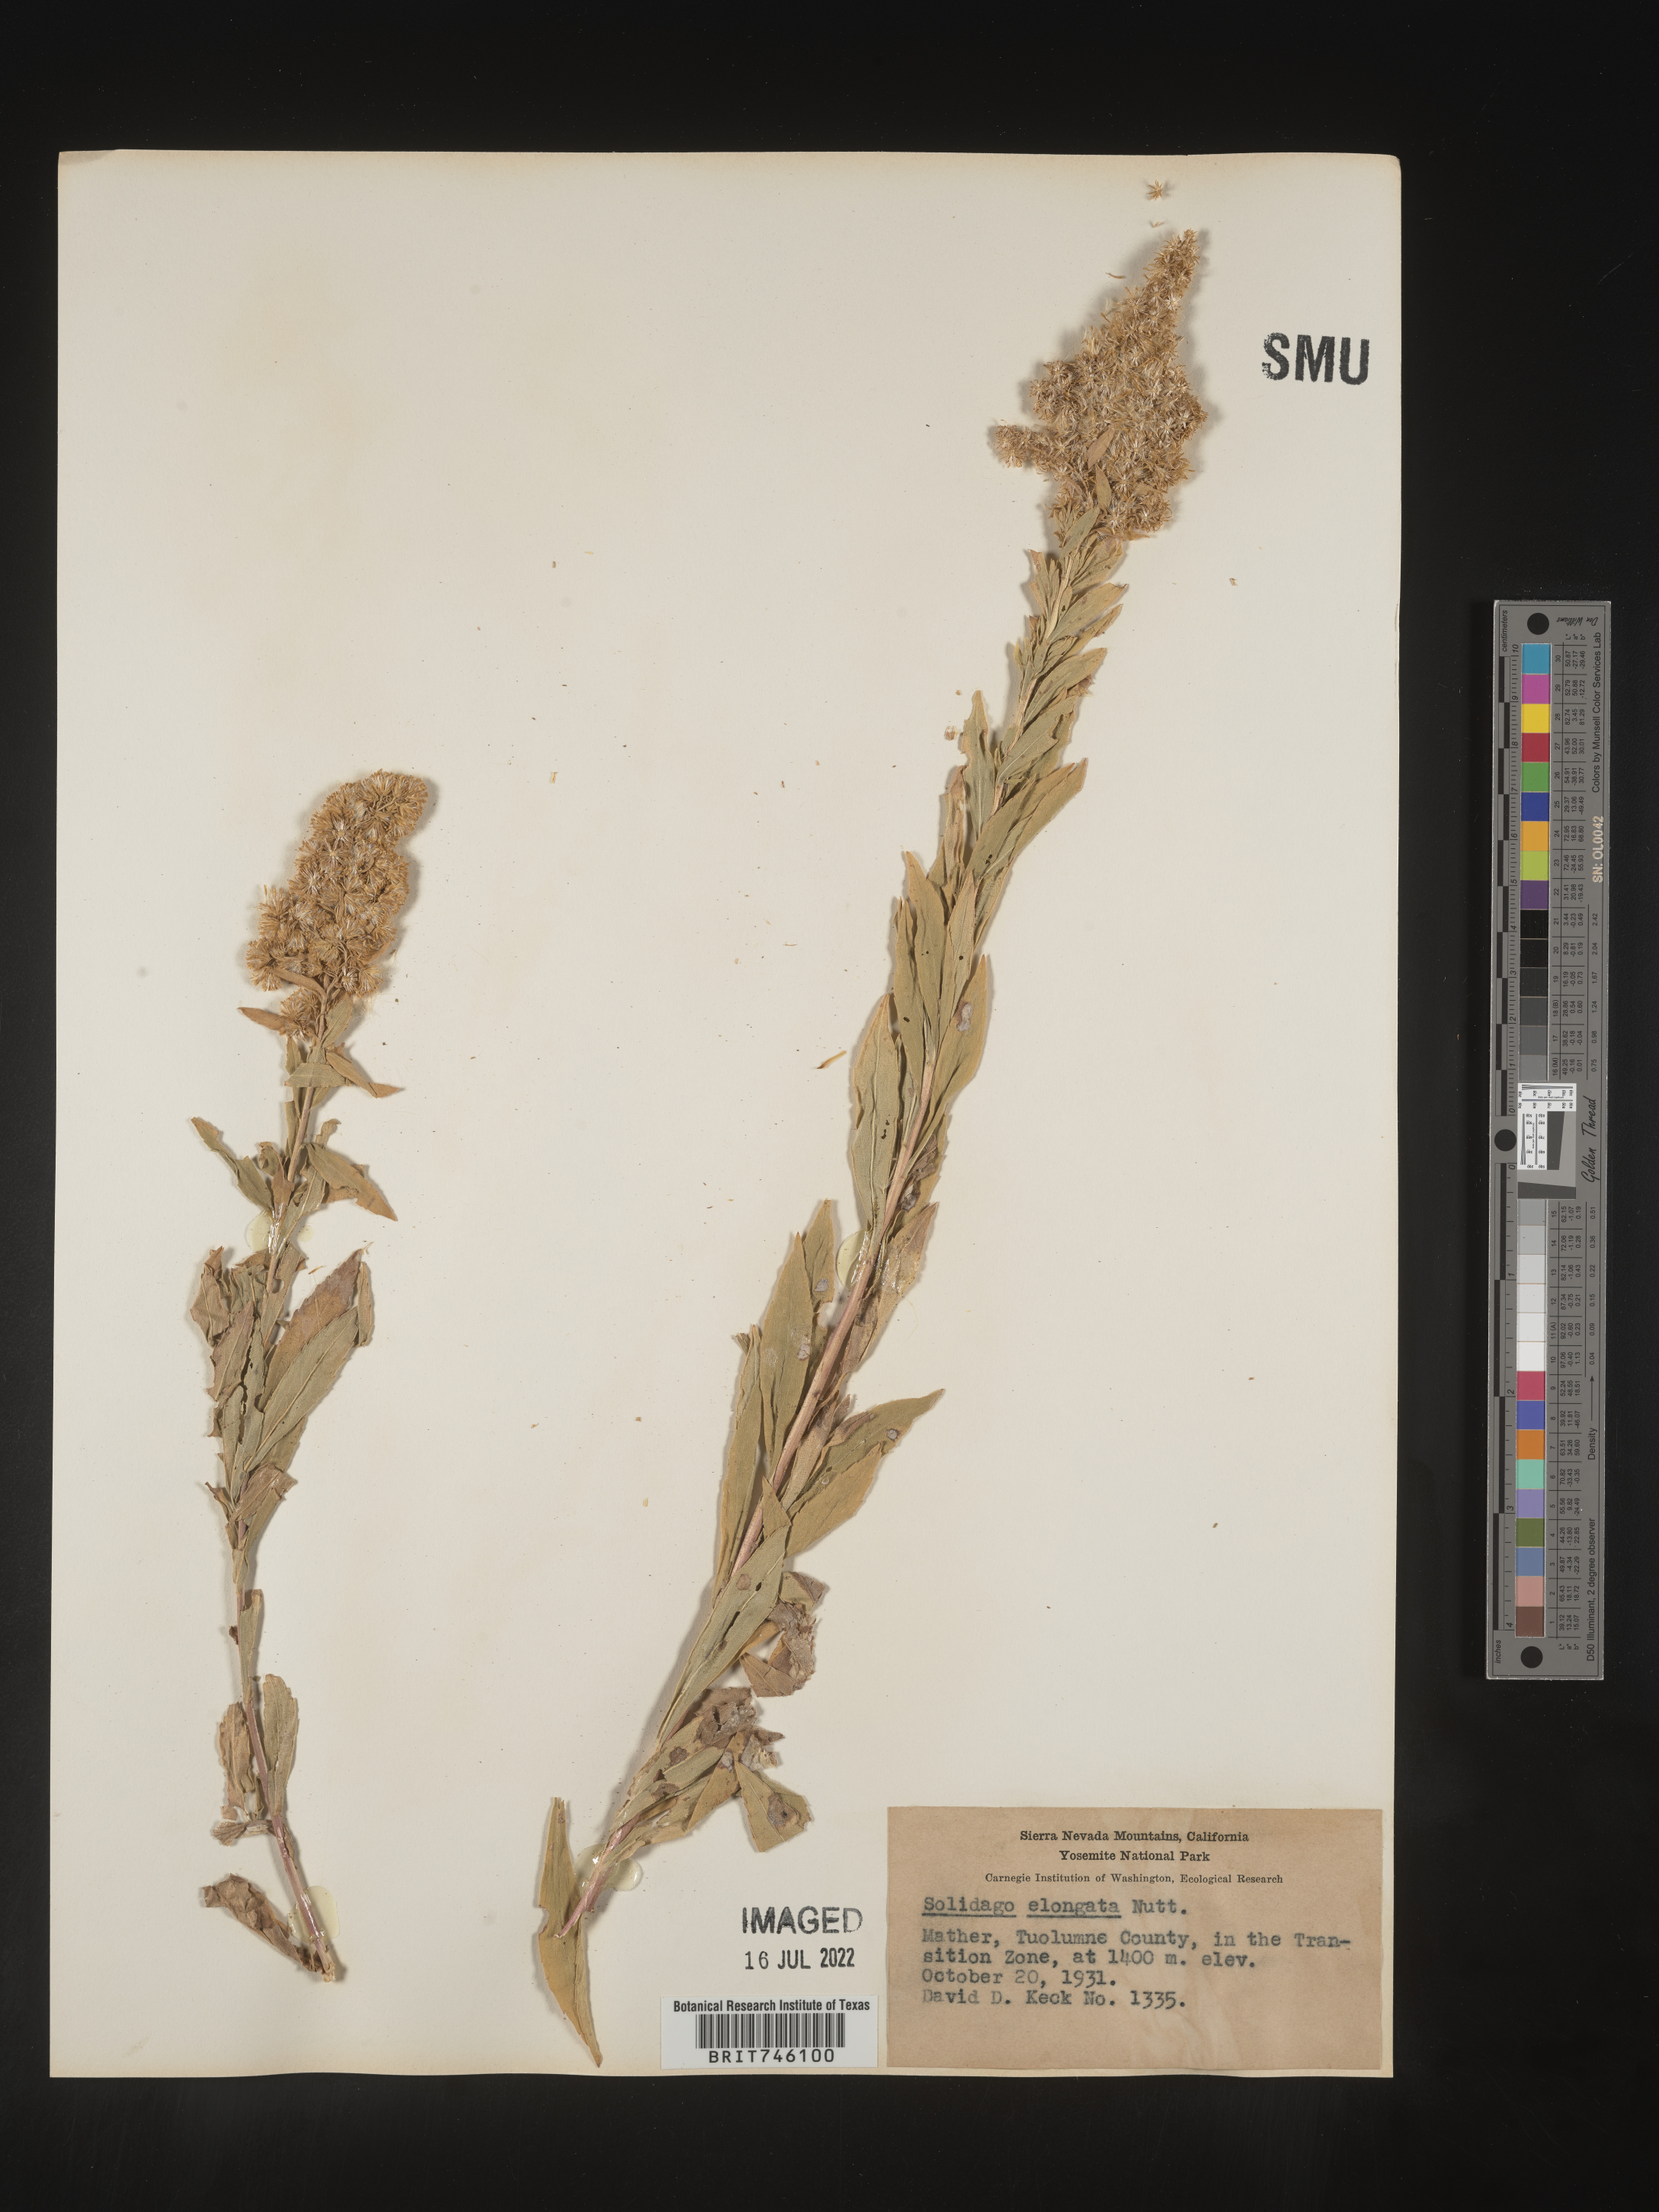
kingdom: Plantae
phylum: Tracheophyta
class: Magnoliopsida
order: Asterales
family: Asteraceae
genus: Solidago
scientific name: Solidago elongata
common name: Cascade canada goldenrod
